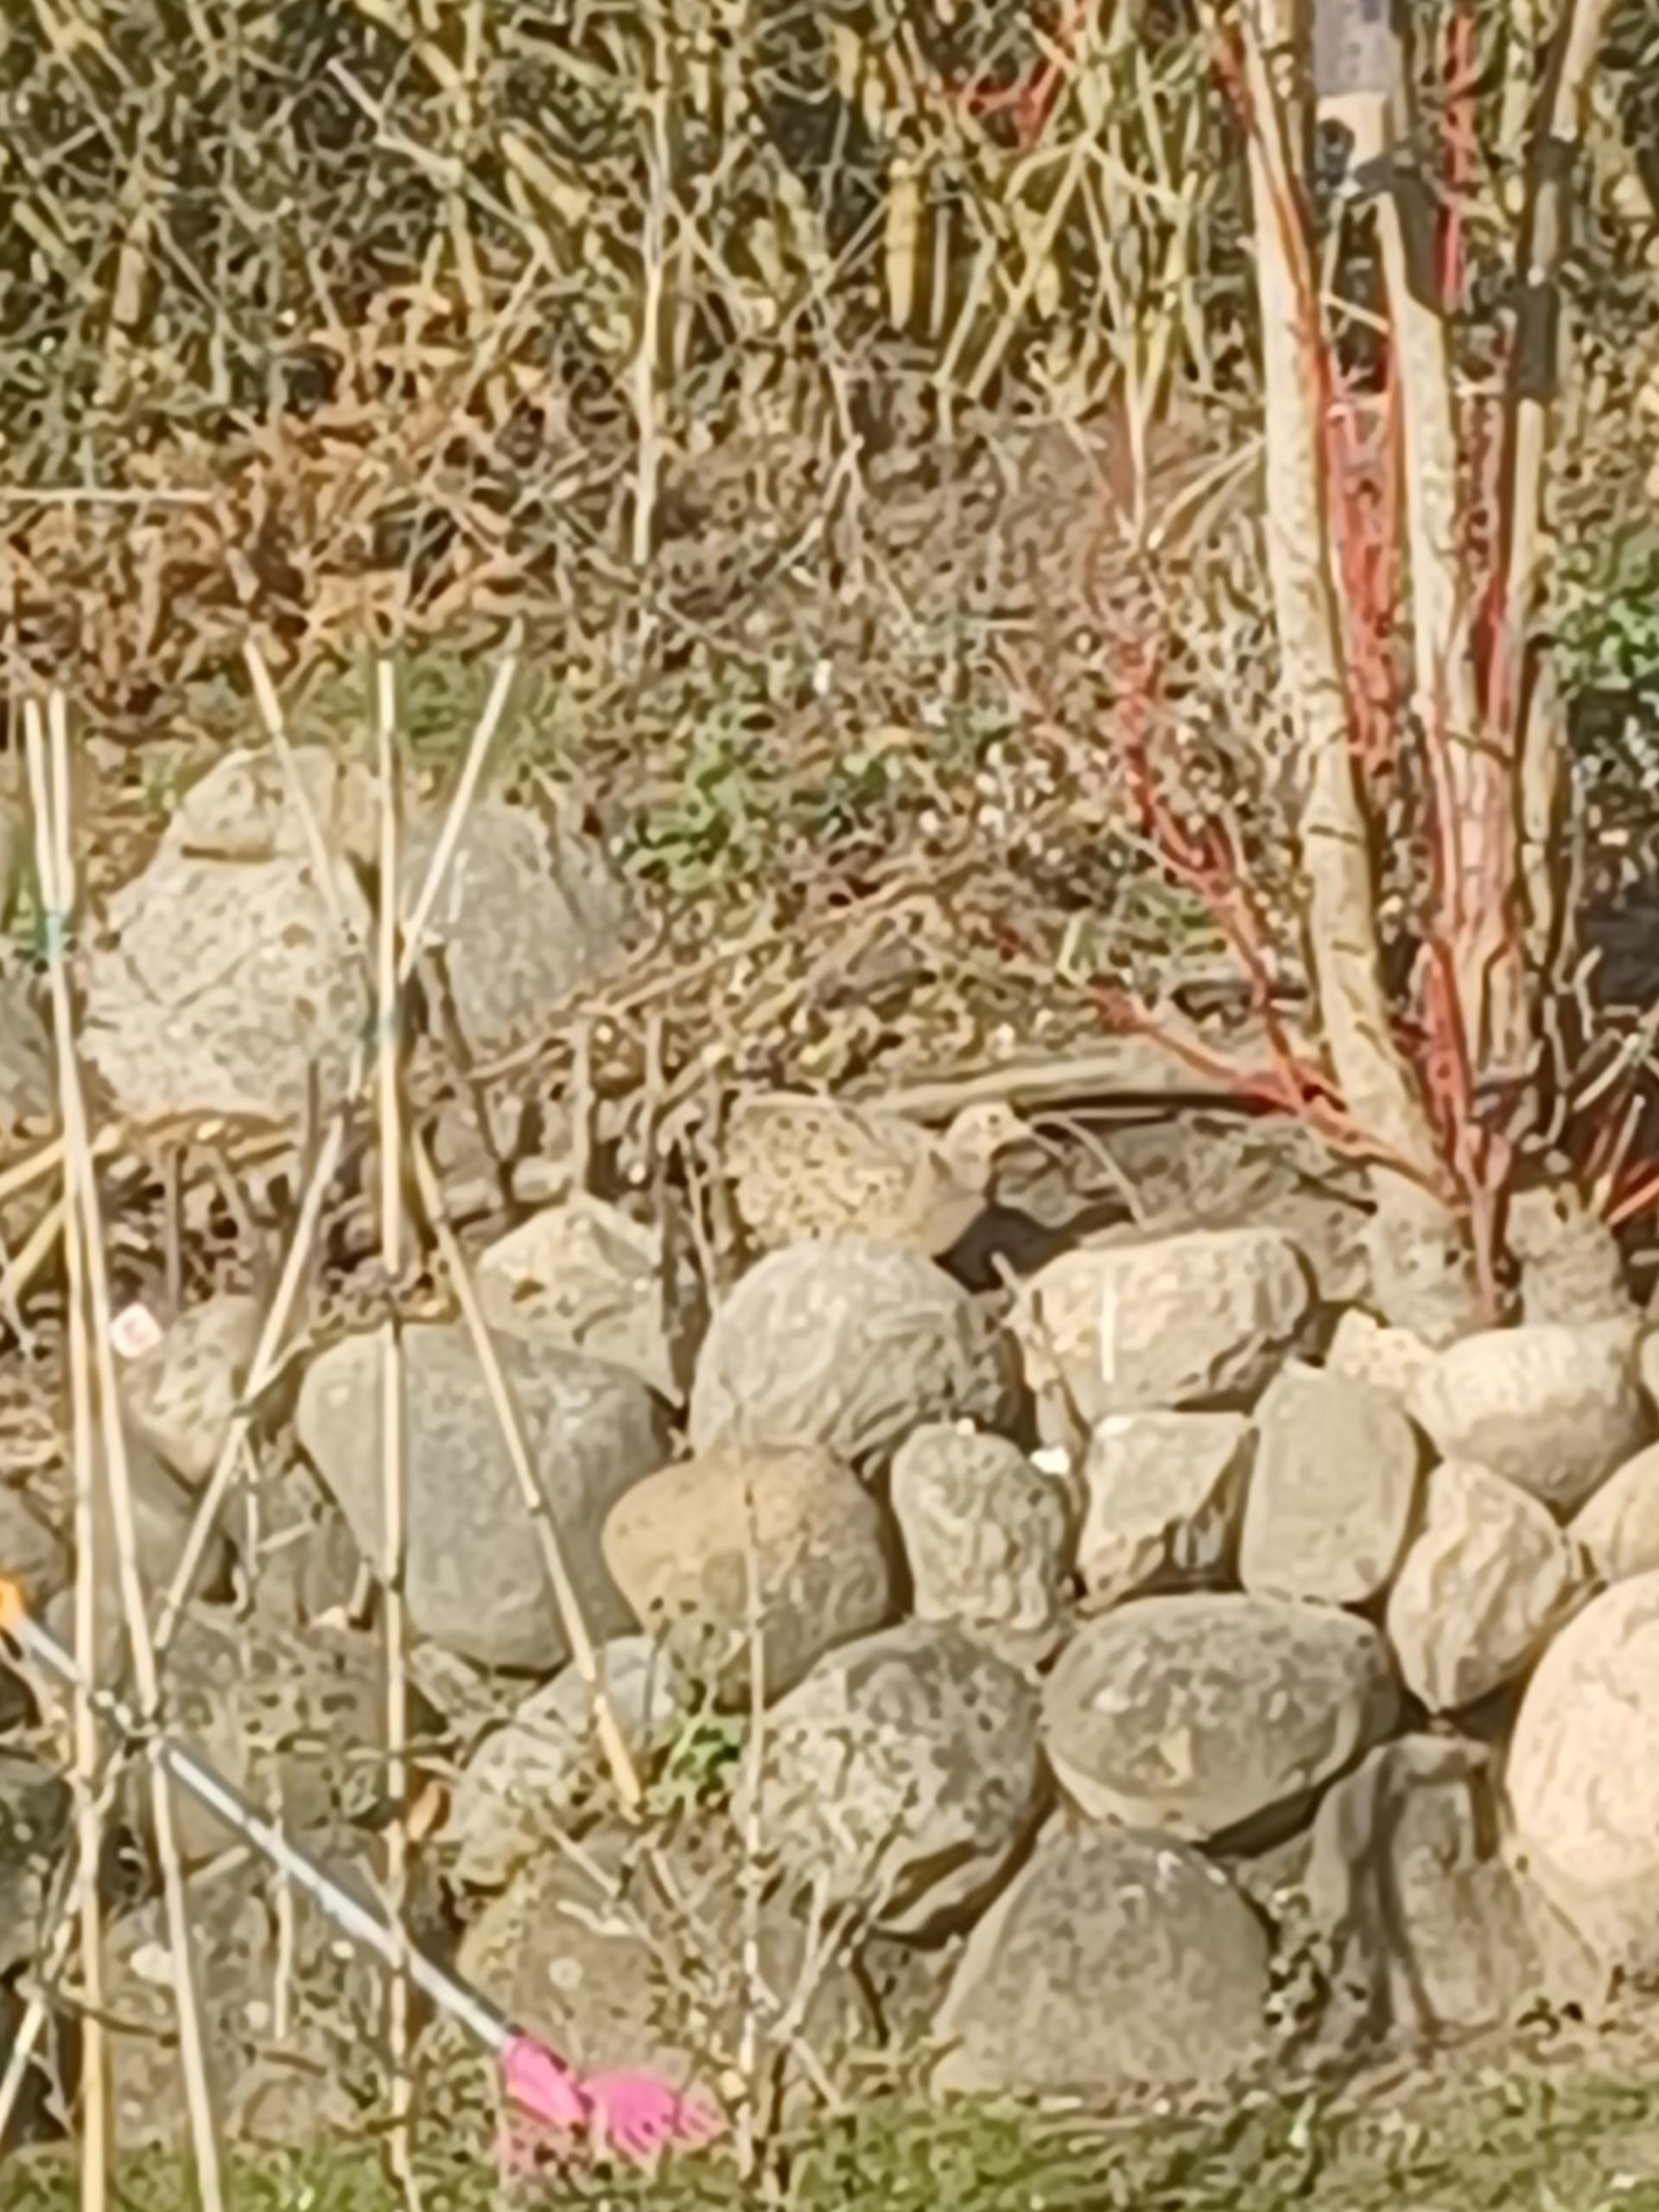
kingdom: Animalia
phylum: Chordata
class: Aves
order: Galliformes
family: Phasianidae
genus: Phasianus
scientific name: Phasianus colchicus
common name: Fasan
